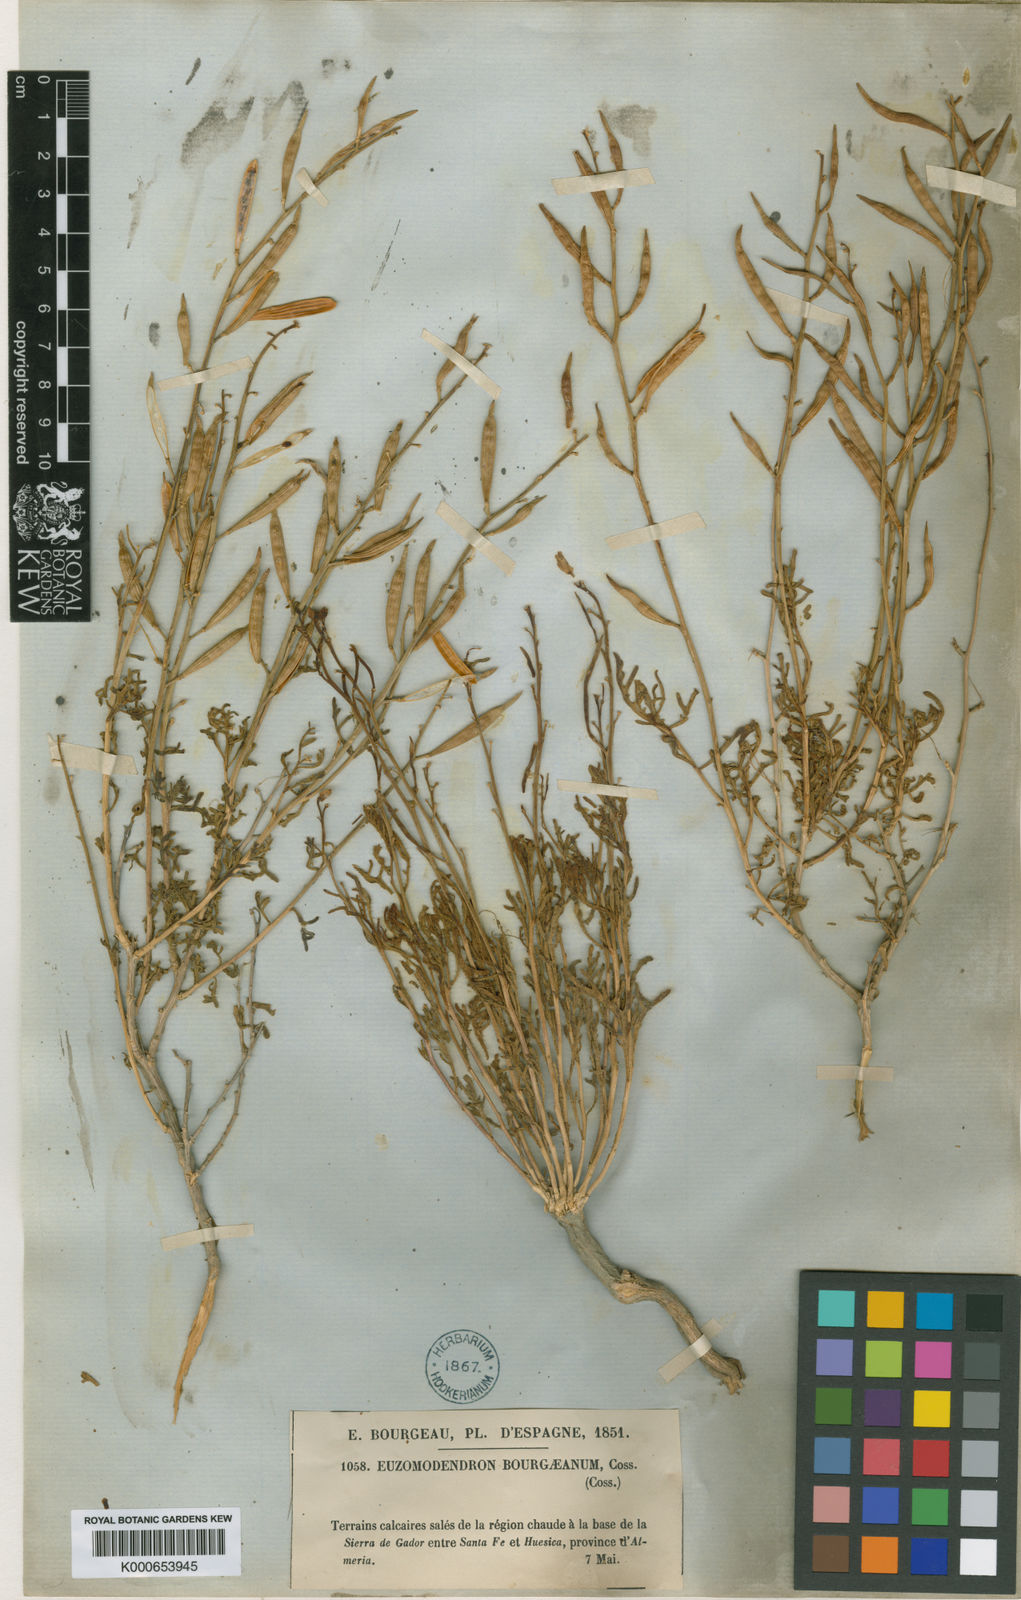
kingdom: Plantae
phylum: Tracheophyta
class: Magnoliopsida
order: Brassicales
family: Brassicaceae
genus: Vella
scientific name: Vella bourgaeana
